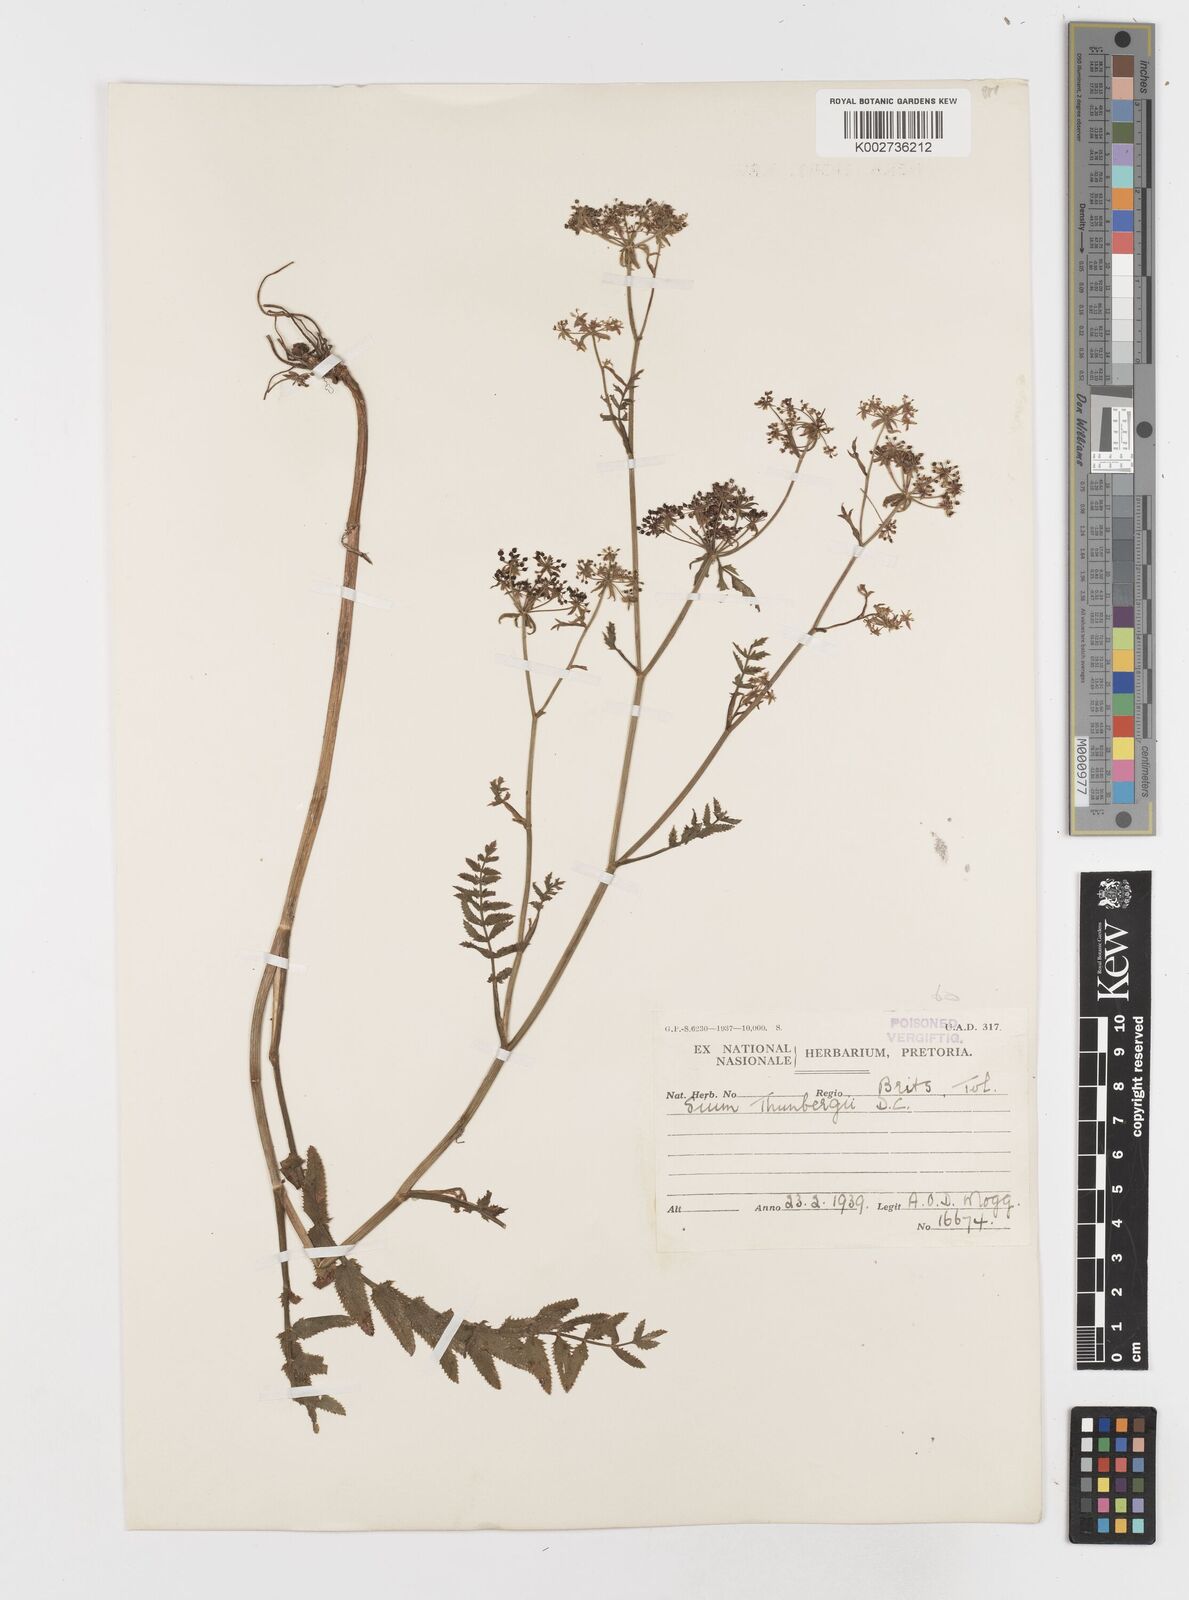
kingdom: Plantae
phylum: Tracheophyta
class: Magnoliopsida
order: Apiales
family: Apiaceae
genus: Berula
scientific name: Berula erecta
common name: Lesser water-parsnip
